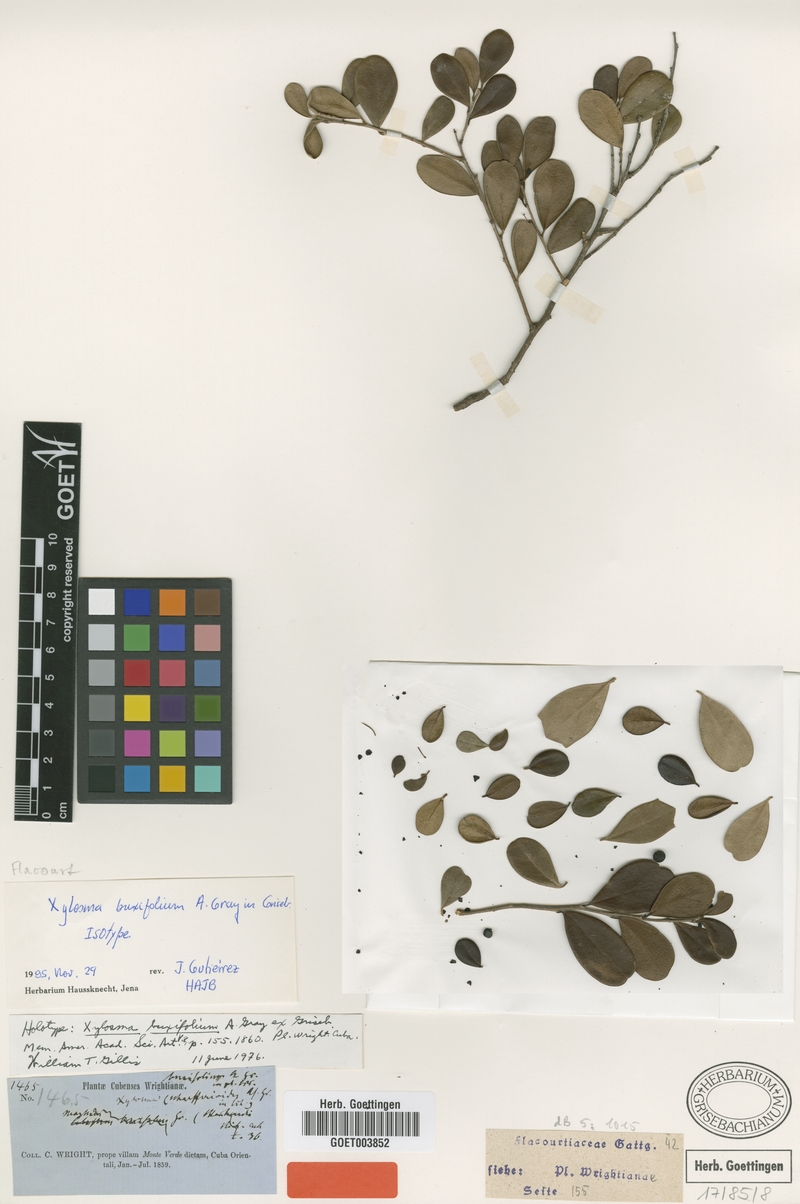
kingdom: Plantae
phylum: Tracheophyta
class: Magnoliopsida
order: Malpighiales
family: Salicaceae
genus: Xylosma
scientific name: Xylosma buxifolia
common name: Cockspur
